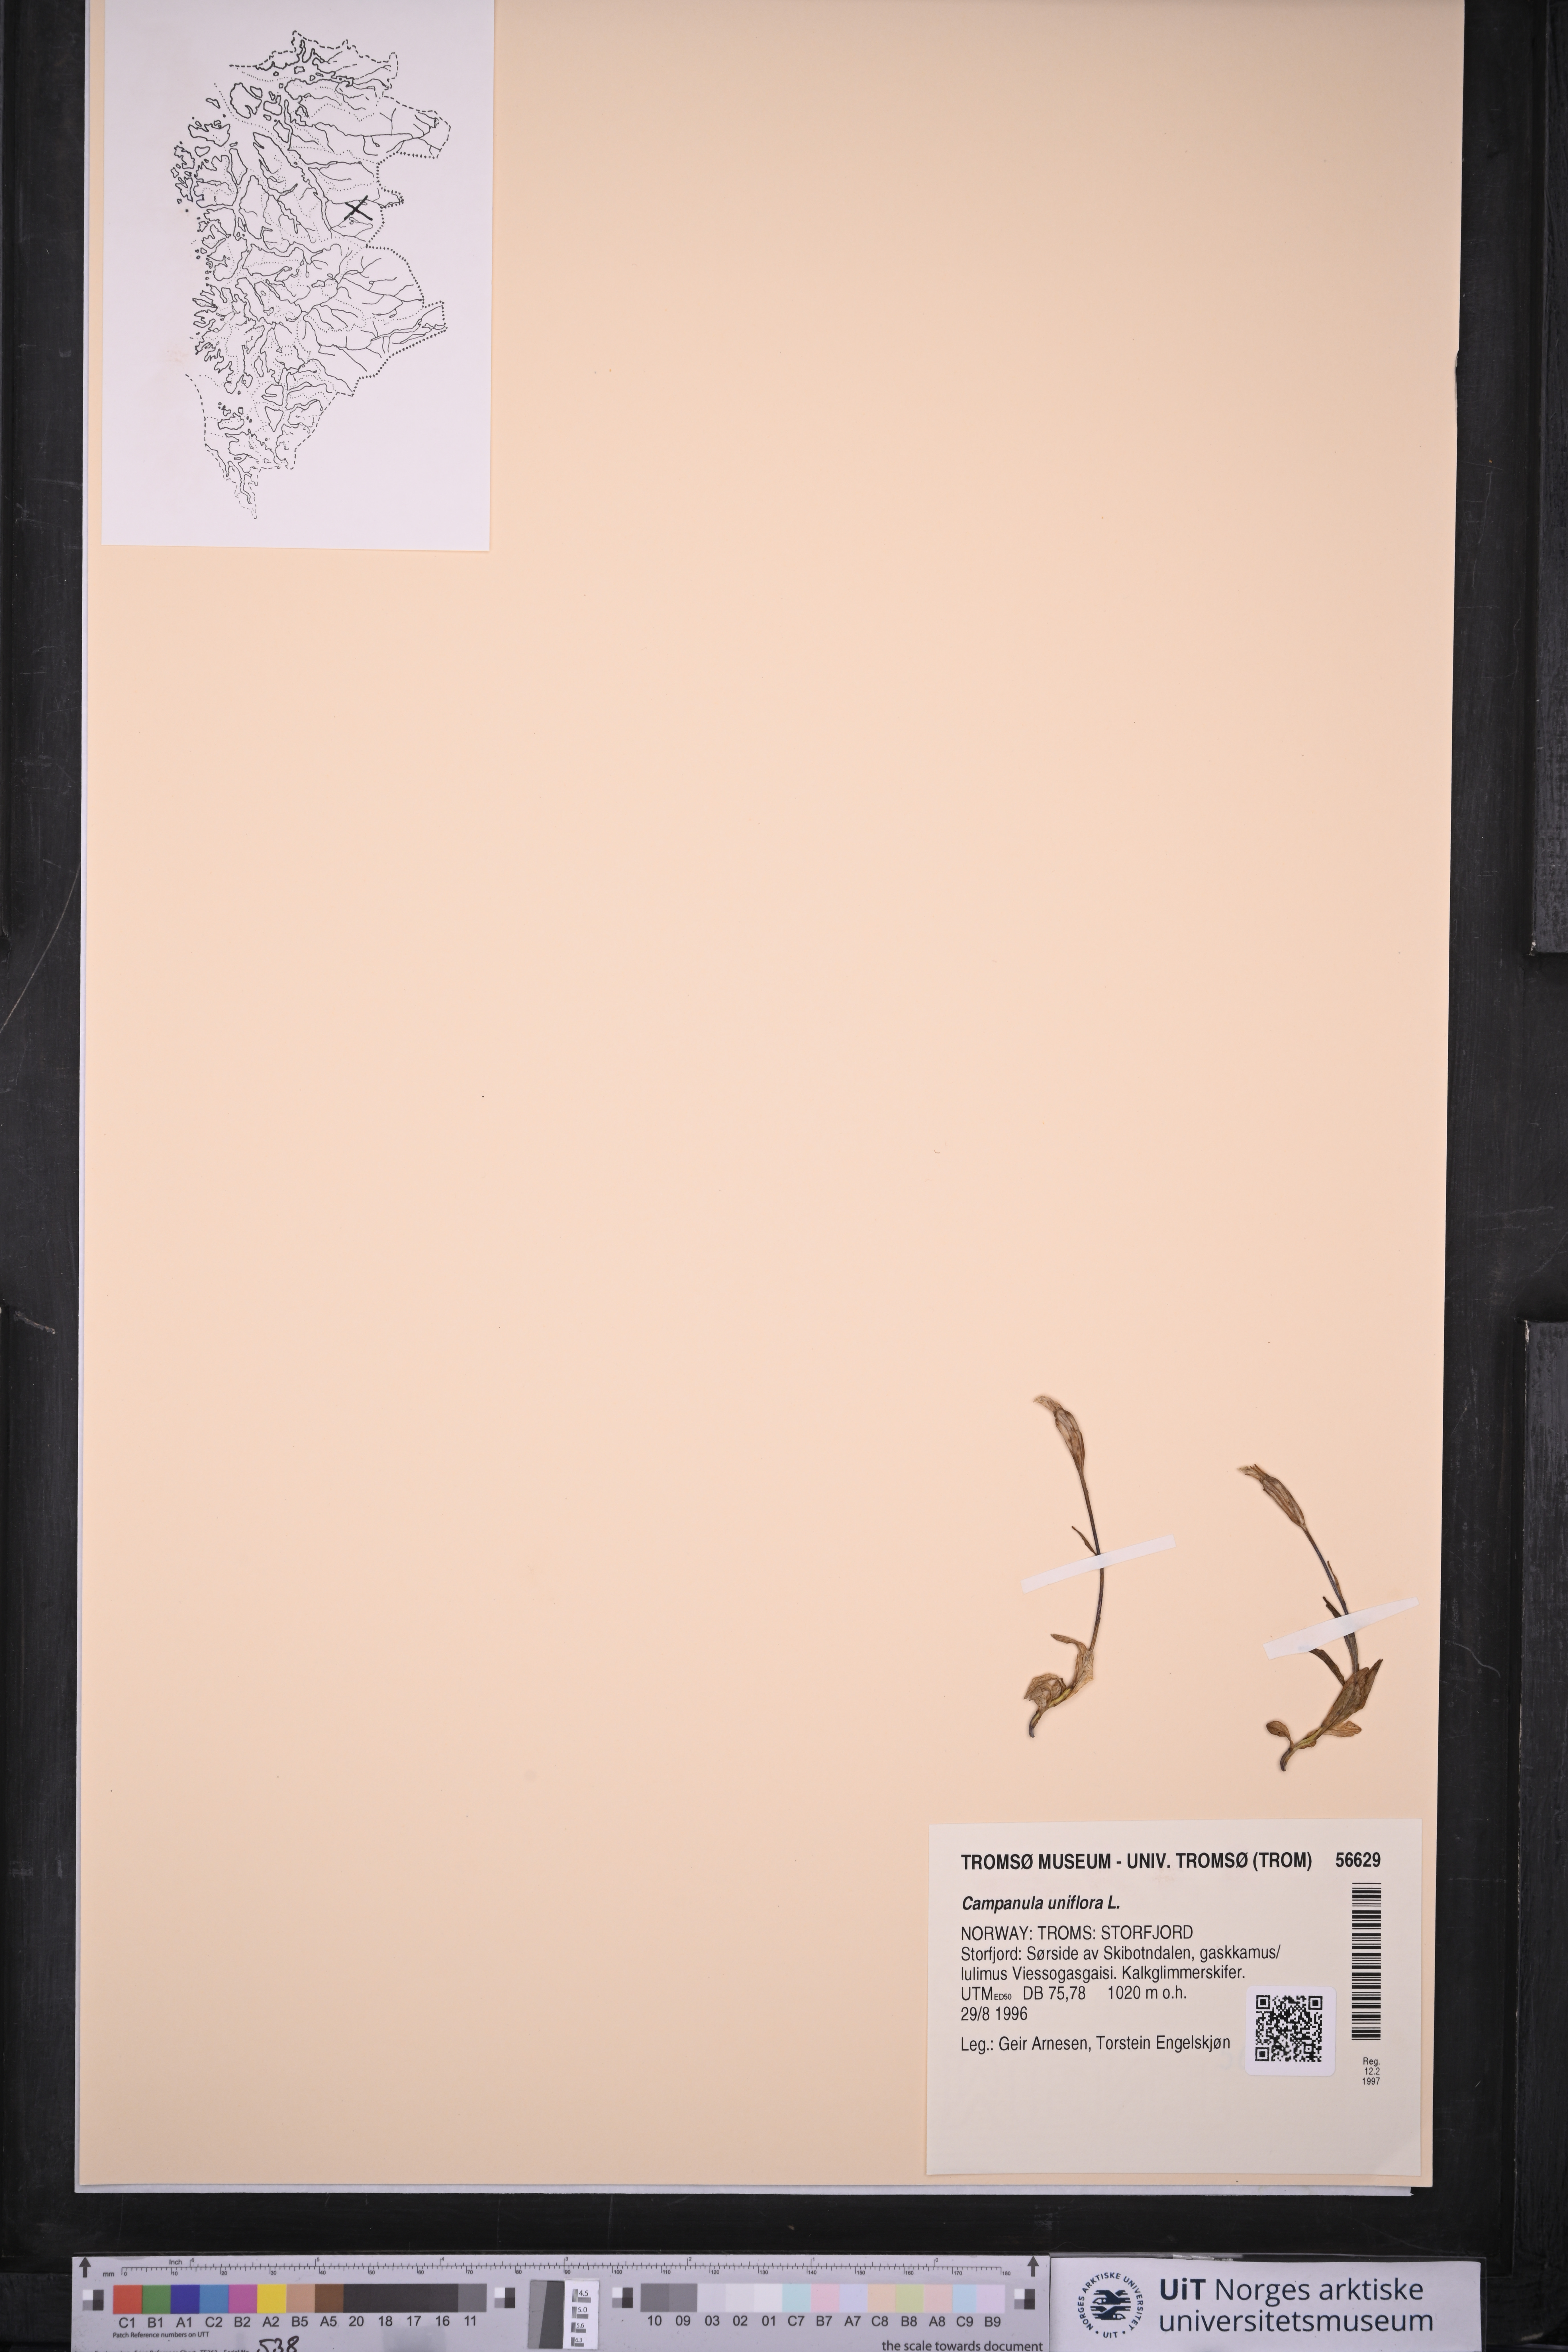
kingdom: Plantae
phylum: Tracheophyta
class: Magnoliopsida
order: Asterales
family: Campanulaceae
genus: Melanocalyx
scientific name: Melanocalyx uniflora
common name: Alpine harebell
